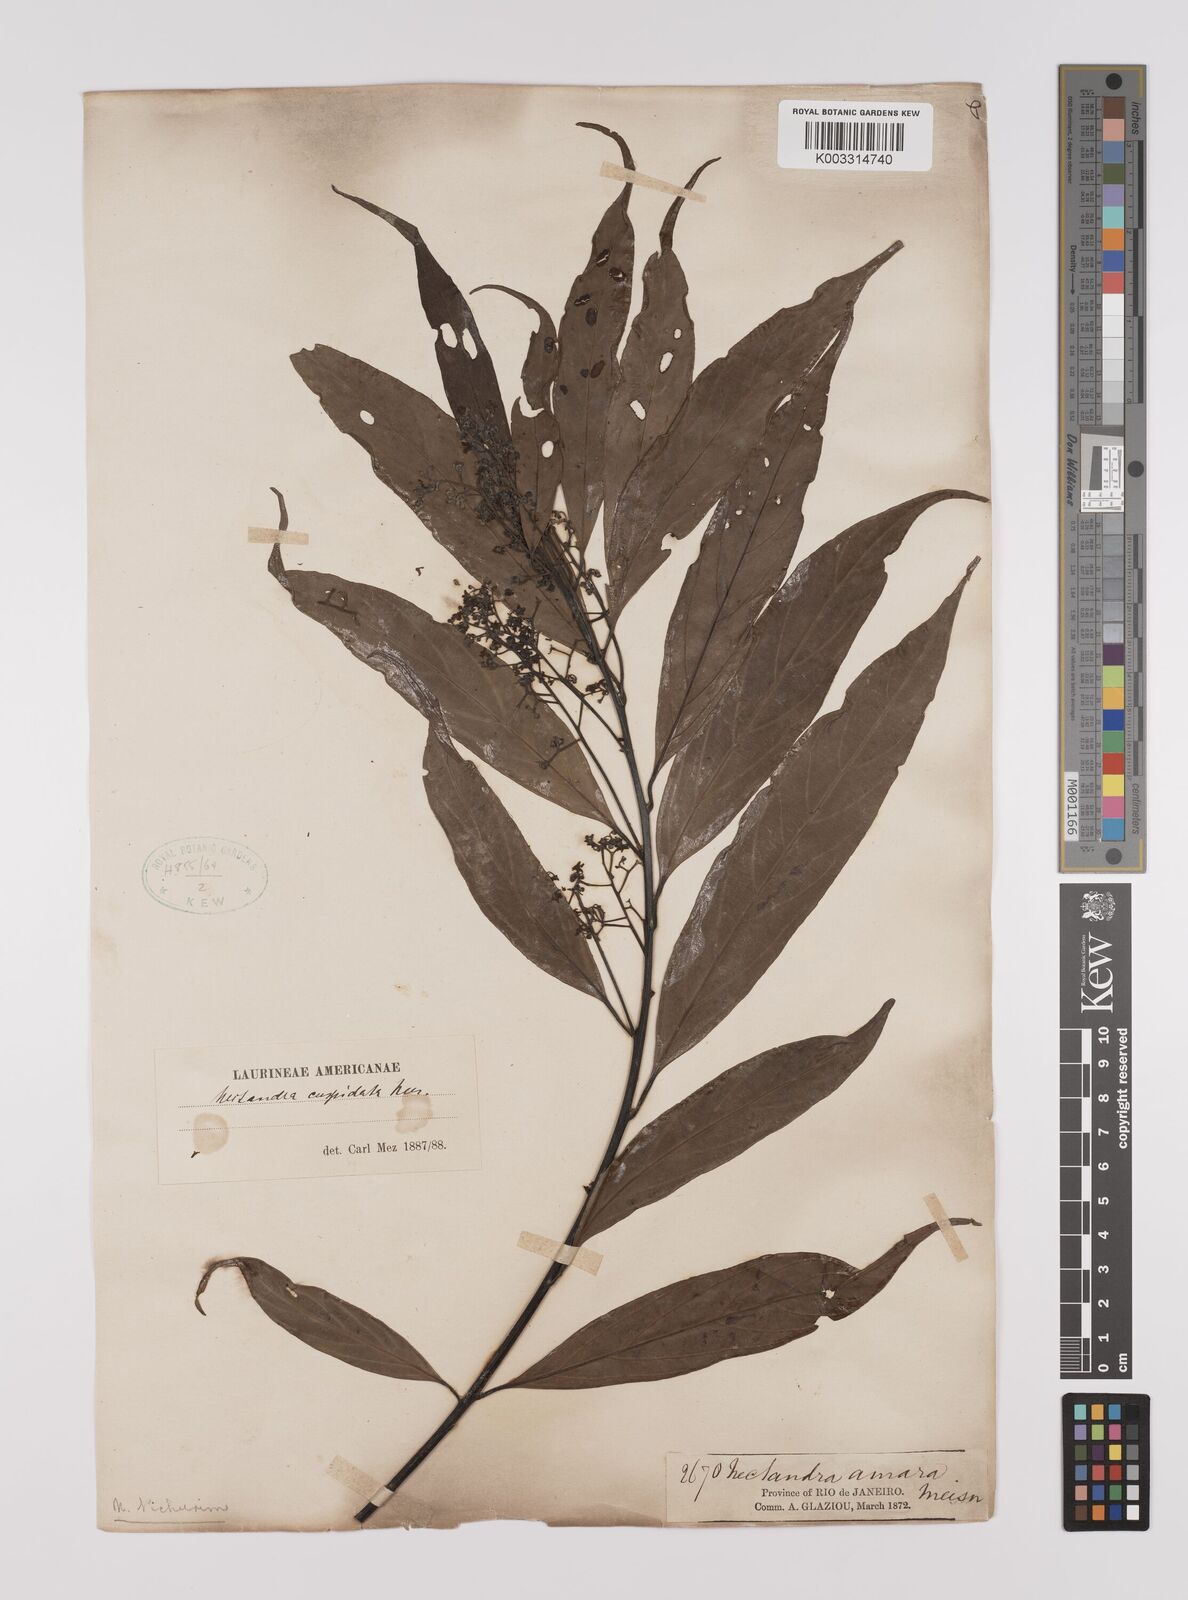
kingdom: Plantae
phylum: Tracheophyta
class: Magnoliopsida
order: Laurales
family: Lauraceae
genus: Nectandra
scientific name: Nectandra cuspidata
